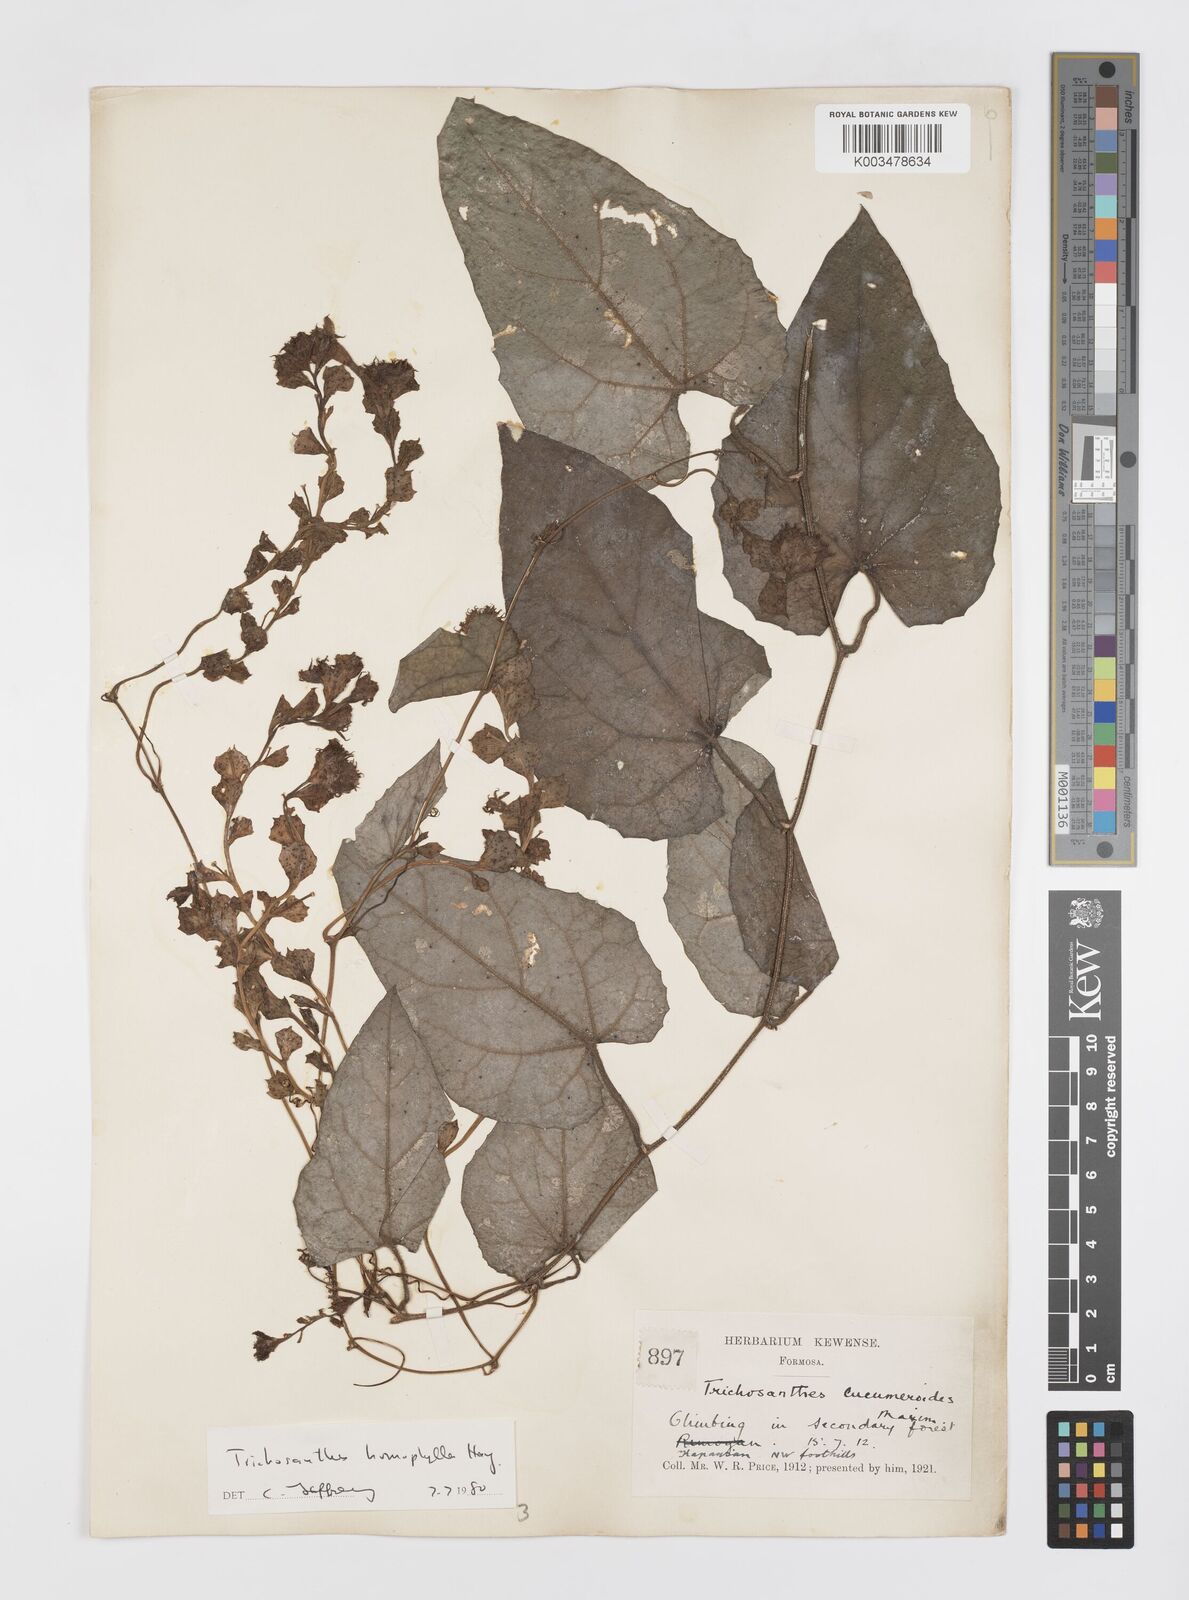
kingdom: Plantae
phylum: Tracheophyta
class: Magnoliopsida
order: Cucurbitales
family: Cucurbitaceae
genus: Trichosanthes
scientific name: Trichosanthes homophylla
